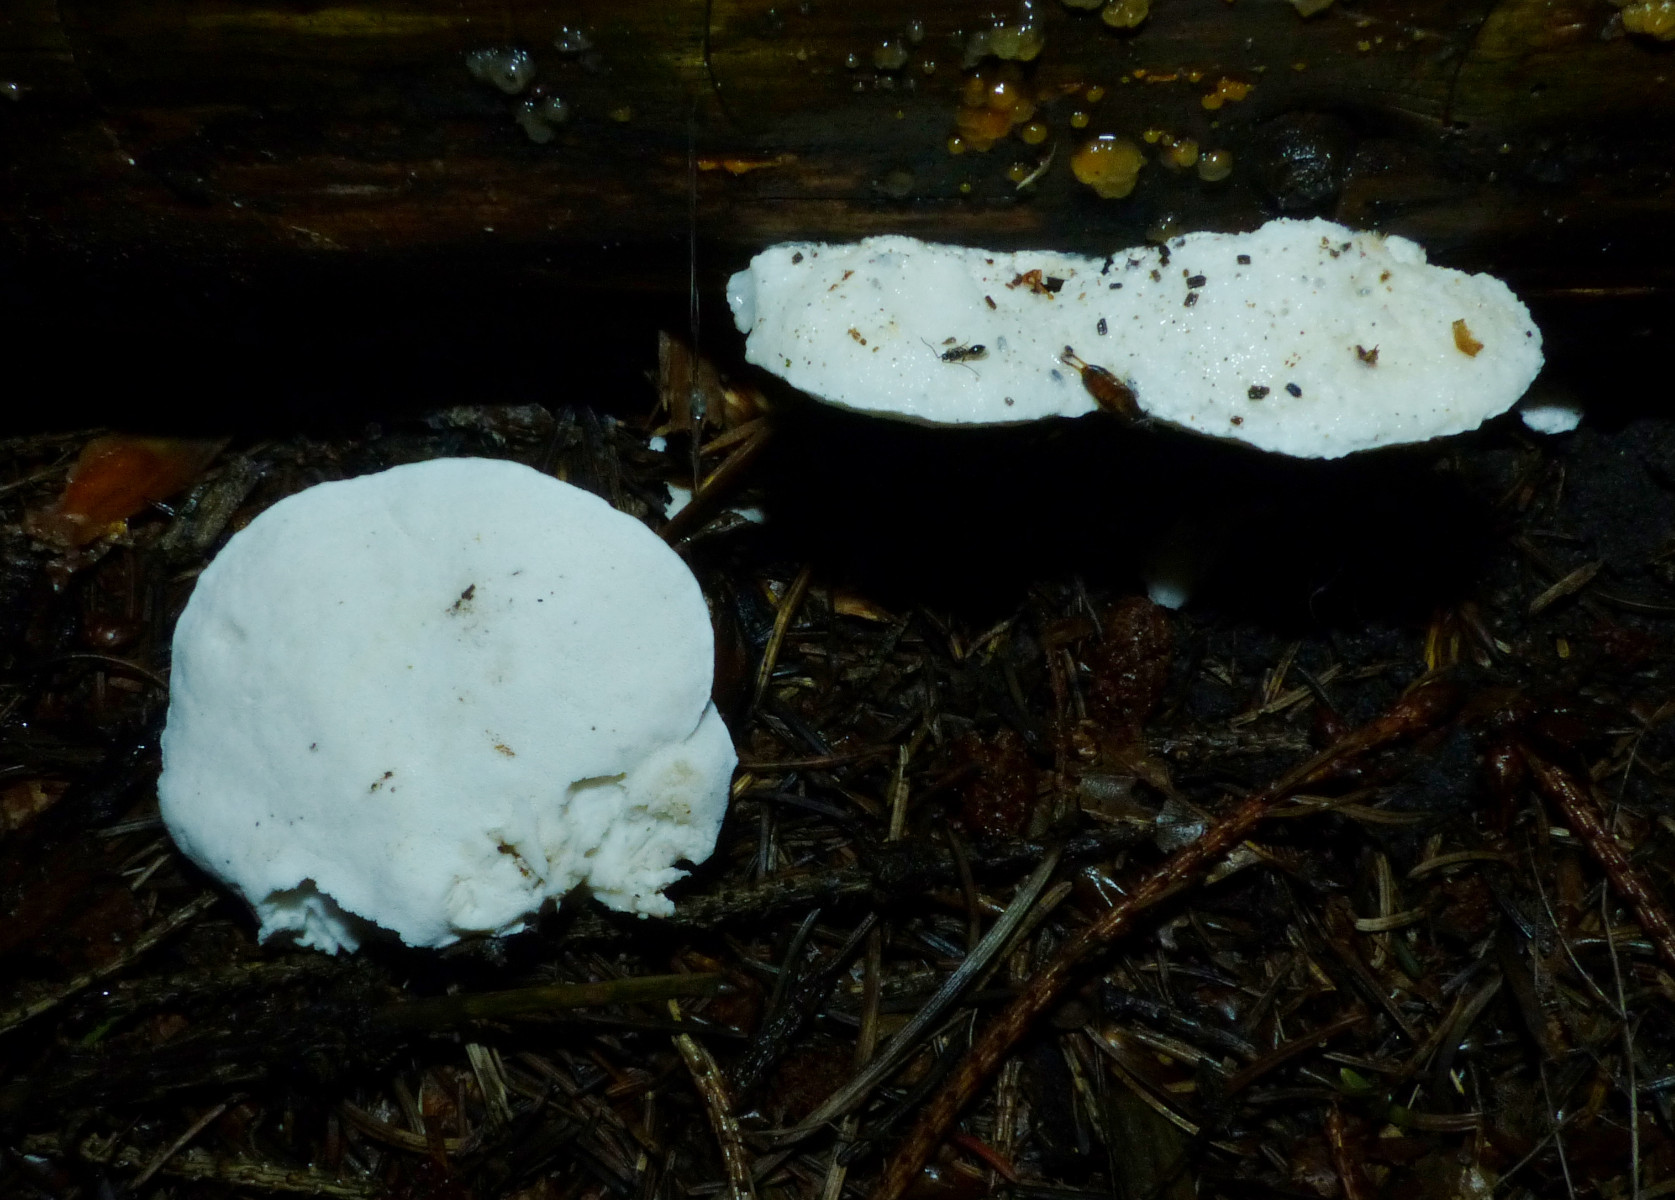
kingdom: Fungi
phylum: Basidiomycota
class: Agaricomycetes
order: Polyporales
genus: Amaropostia
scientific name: Amaropostia stiptica
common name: bitter kødporesvamp
